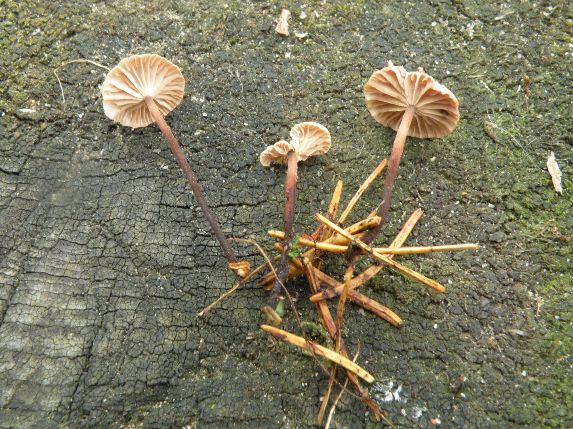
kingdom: Fungi
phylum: Basidiomycota
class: Agaricomycetes
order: Agaricales
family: Omphalotaceae
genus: Paragymnopus
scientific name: Paragymnopus perforans
